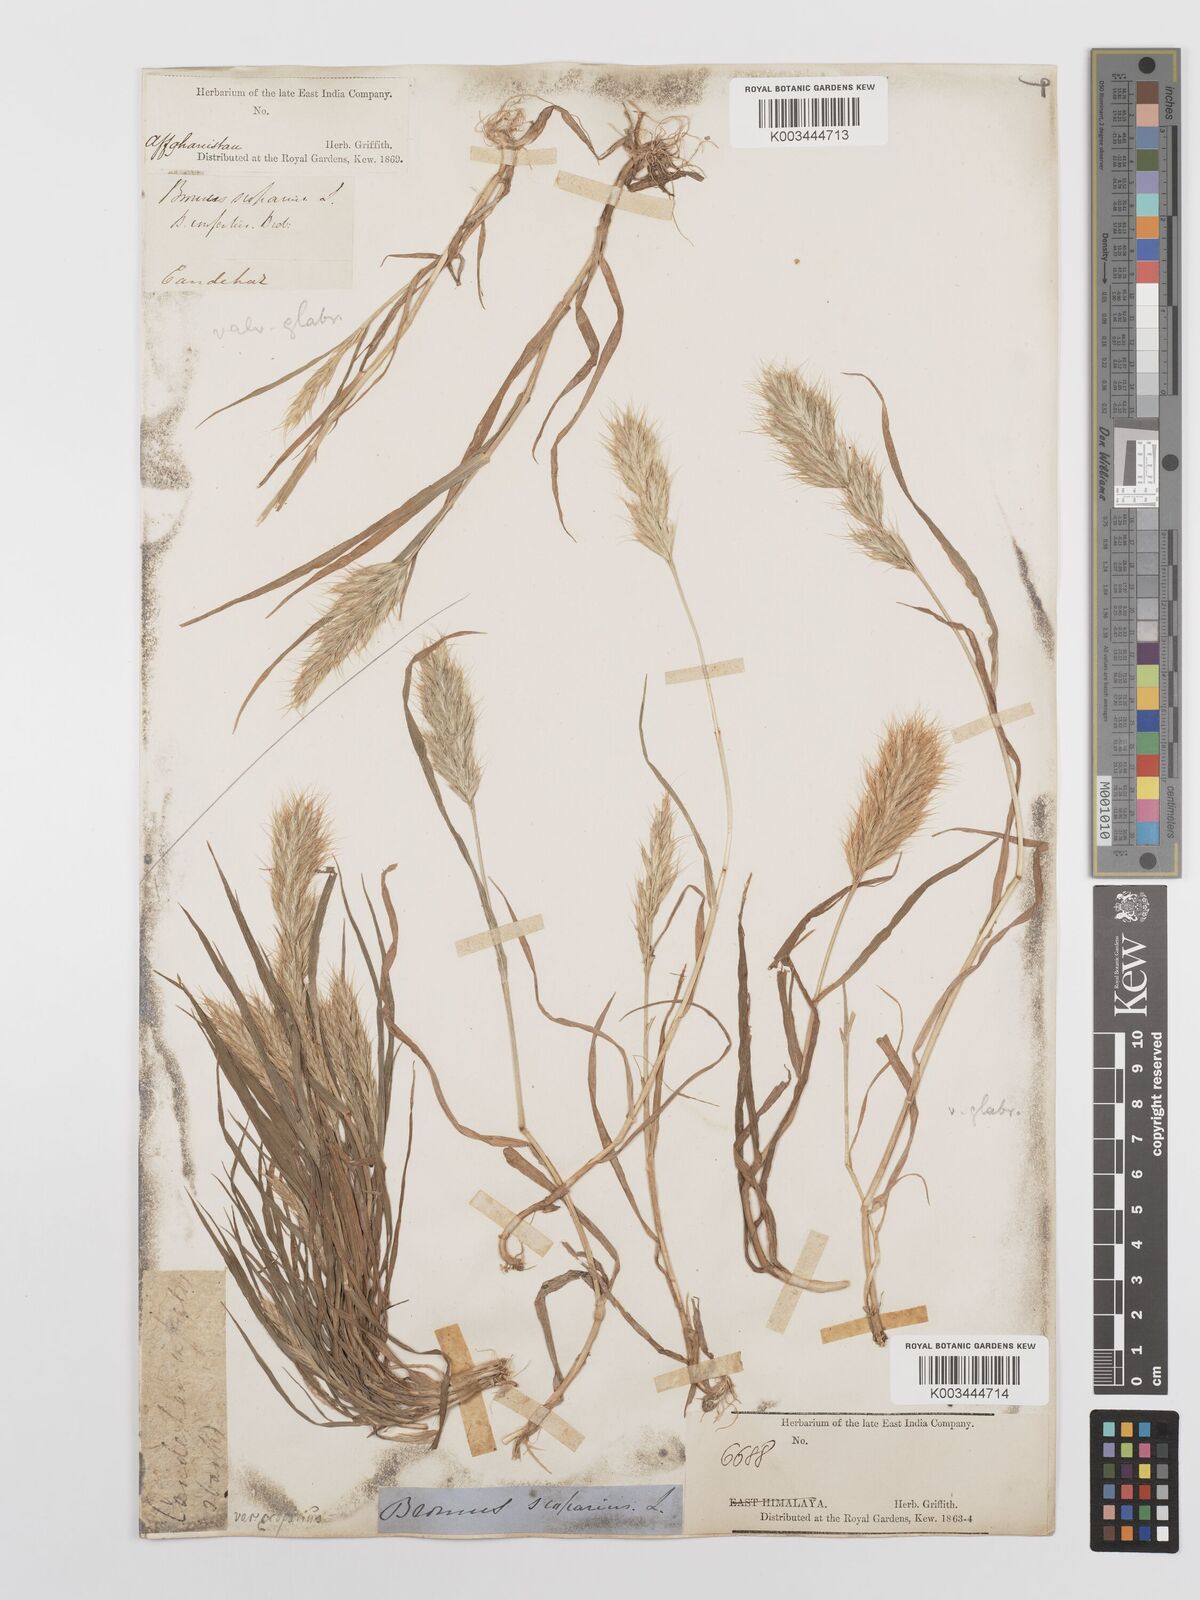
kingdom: Plantae
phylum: Tracheophyta
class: Liliopsida
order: Poales
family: Poaceae
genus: Bromus
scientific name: Bromus scoparius
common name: Broom brome
